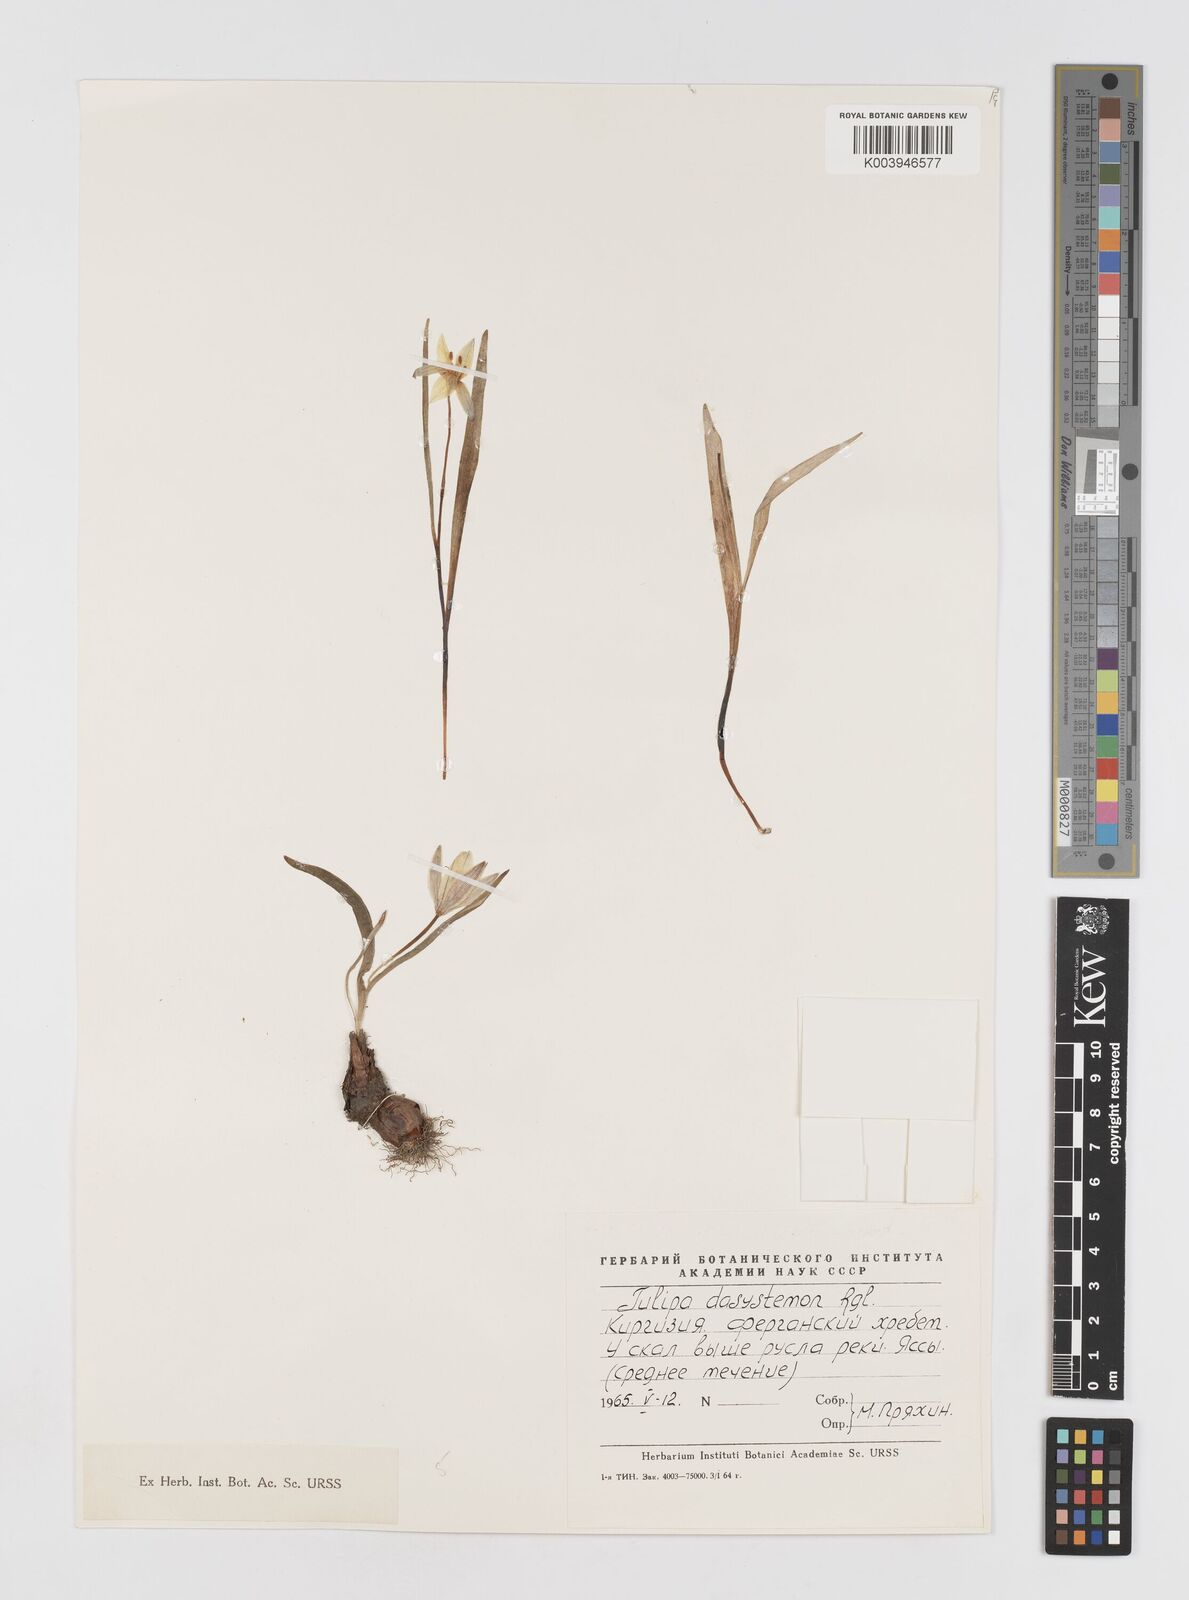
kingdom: Plantae
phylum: Tracheophyta
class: Liliopsida
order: Liliales
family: Liliaceae
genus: Tulipa
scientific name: Tulipa dasystemon
